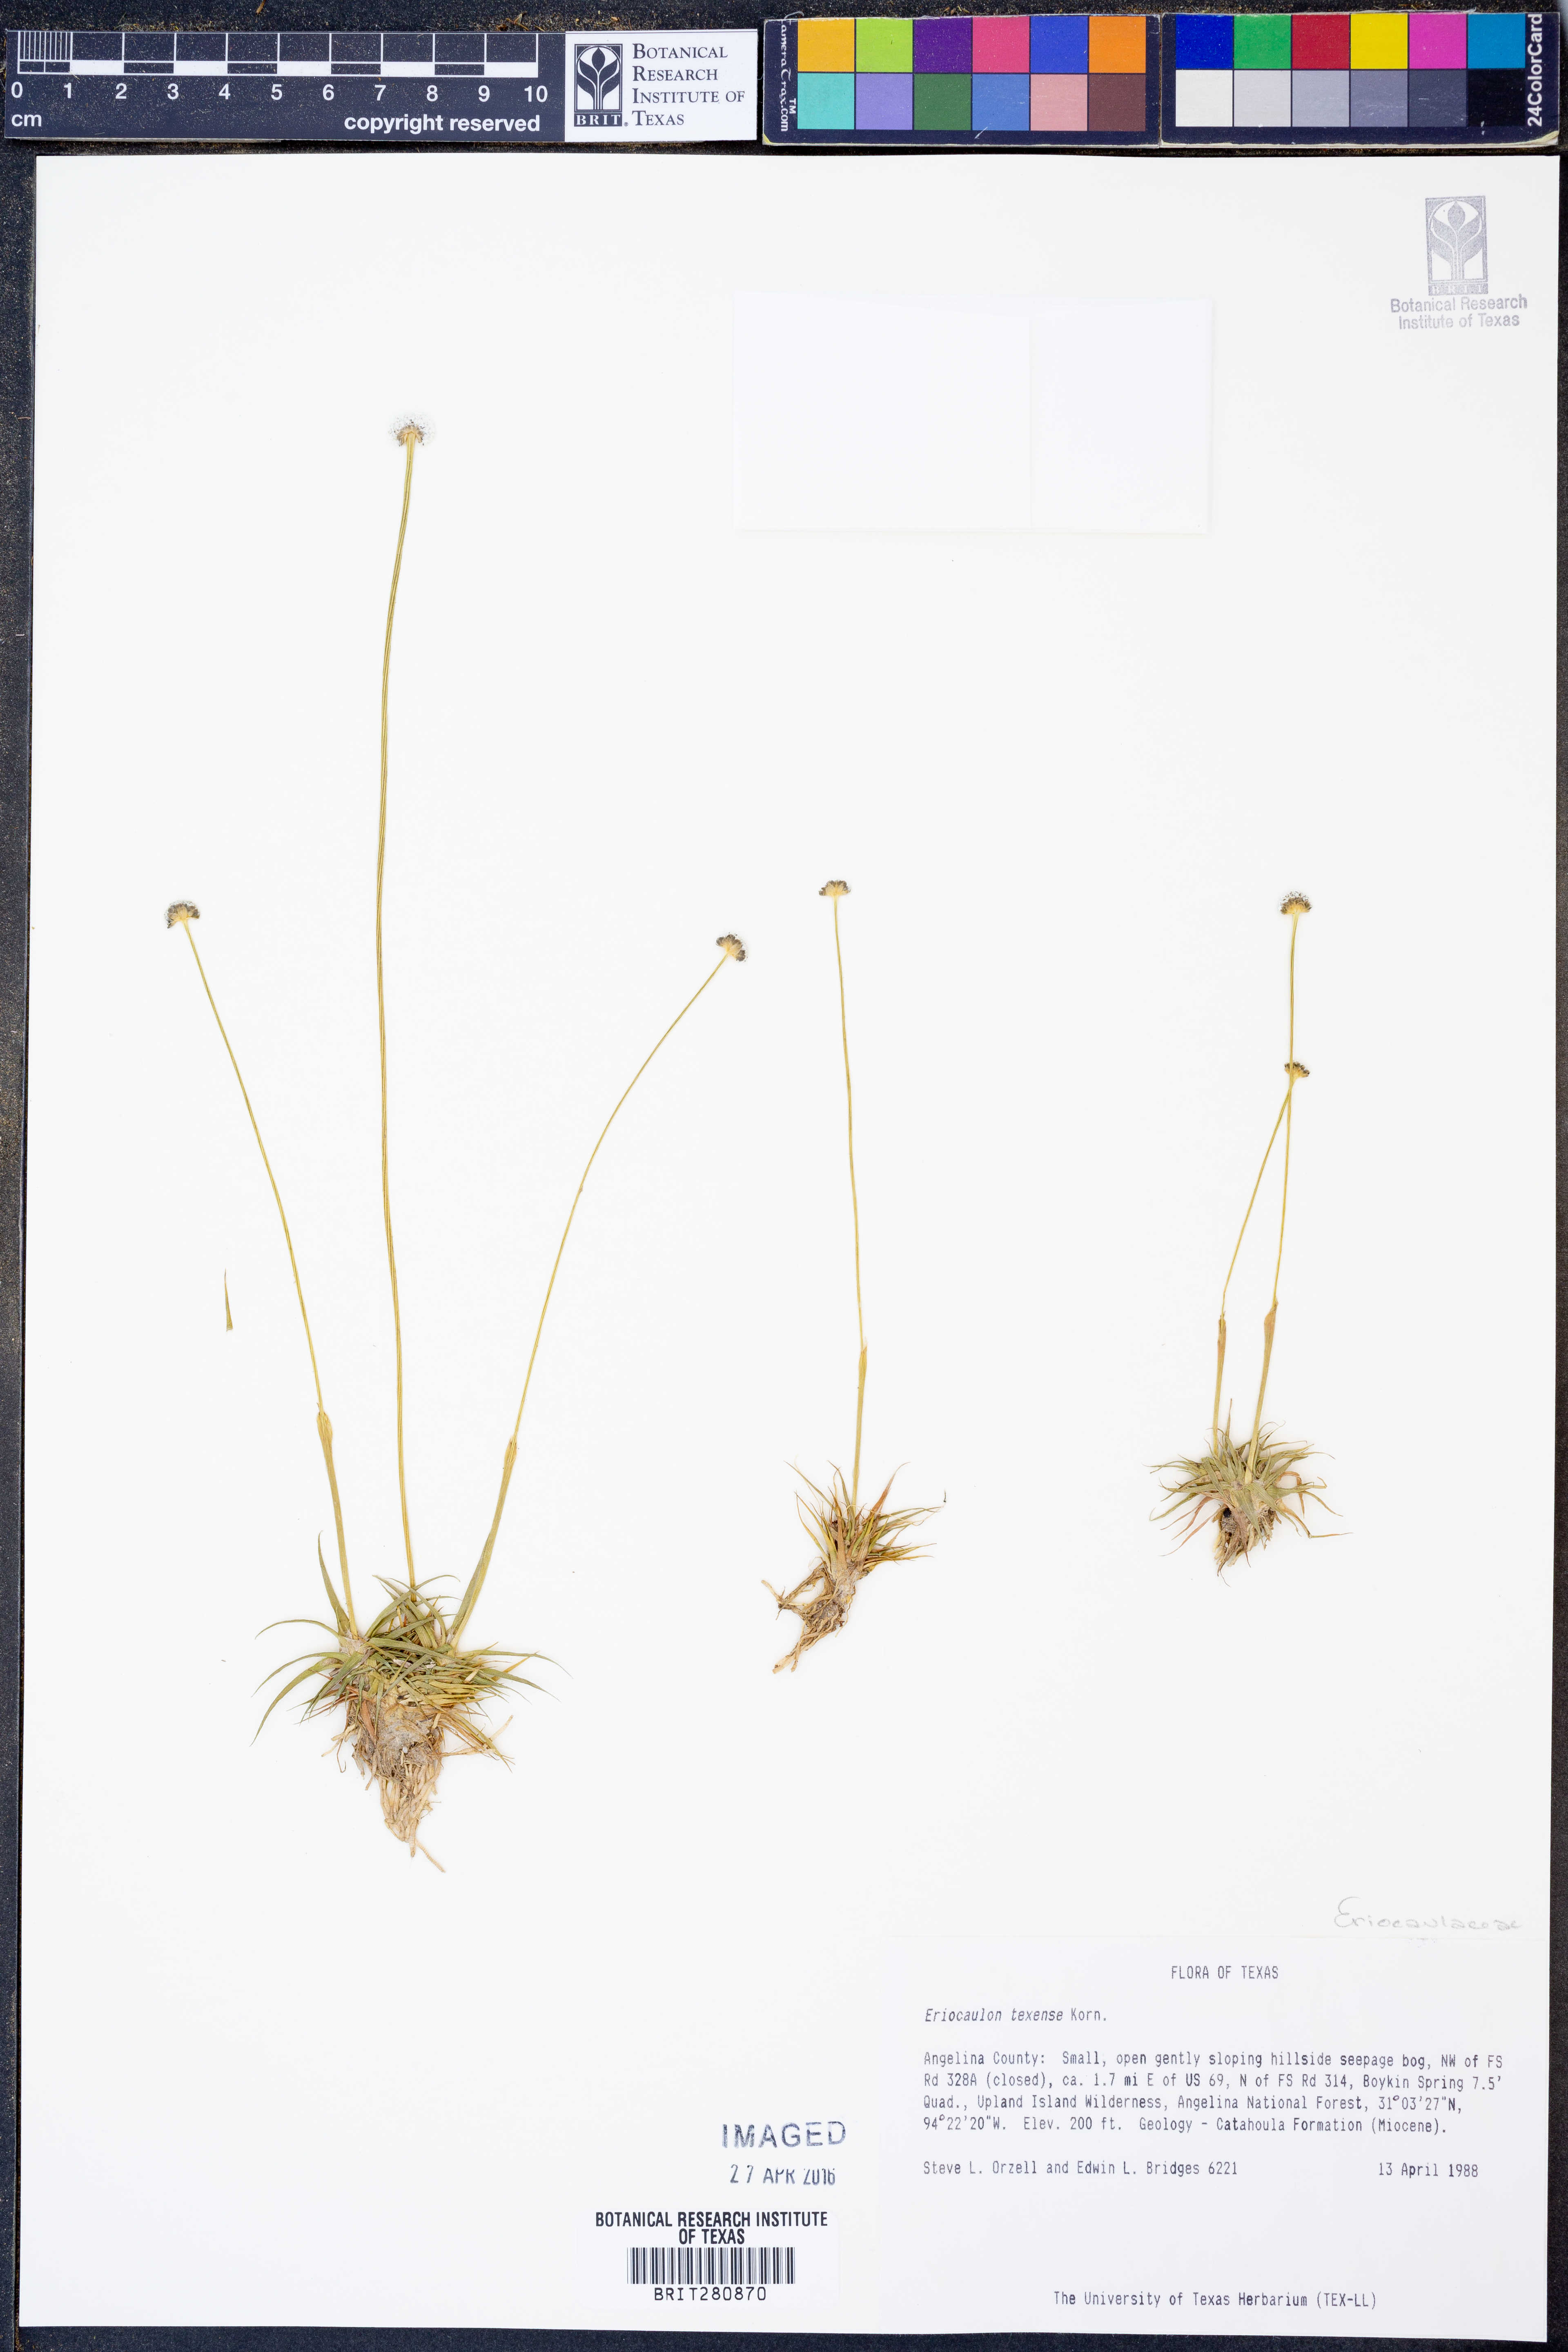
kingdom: Plantae
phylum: Tracheophyta
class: Liliopsida
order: Poales
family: Eriocaulaceae
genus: Eriocaulon
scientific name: Eriocaulon texense
